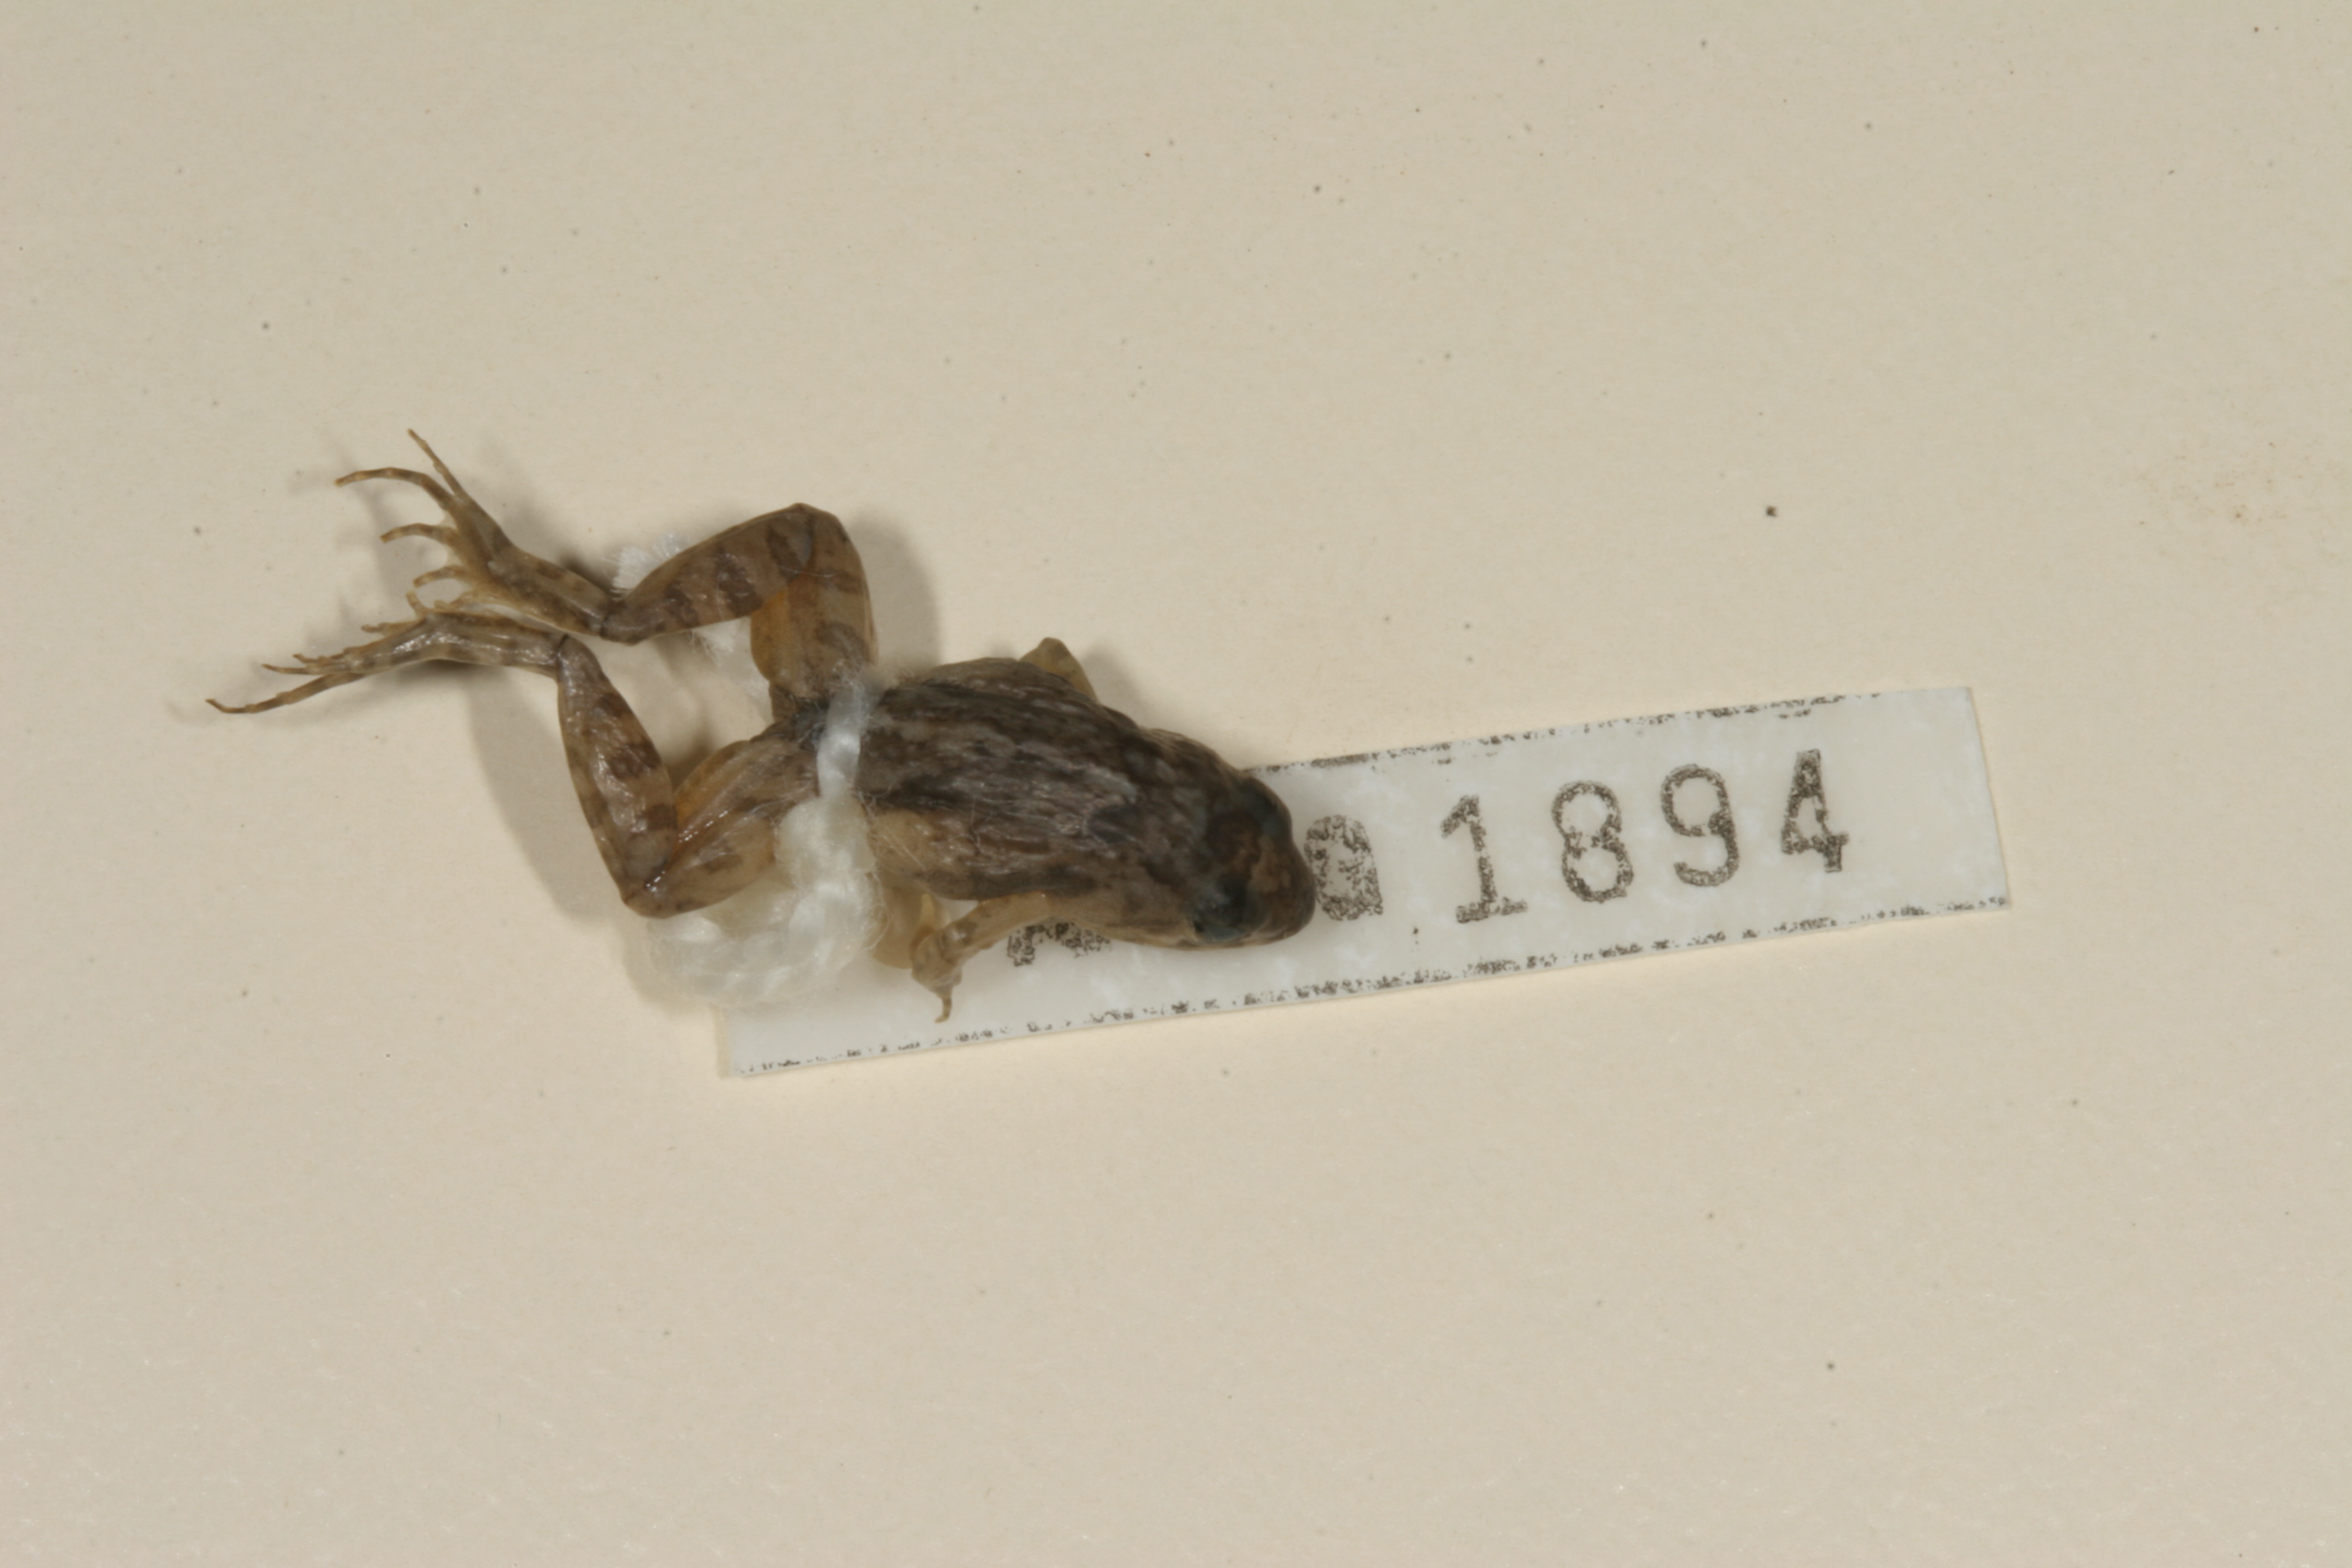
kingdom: Animalia
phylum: Chordata
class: Amphibia
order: Anura
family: Phrynobatrachidae
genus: Phrynobatrachus
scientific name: Phrynobatrachus mababiensis
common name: Dwarf puddle frog
